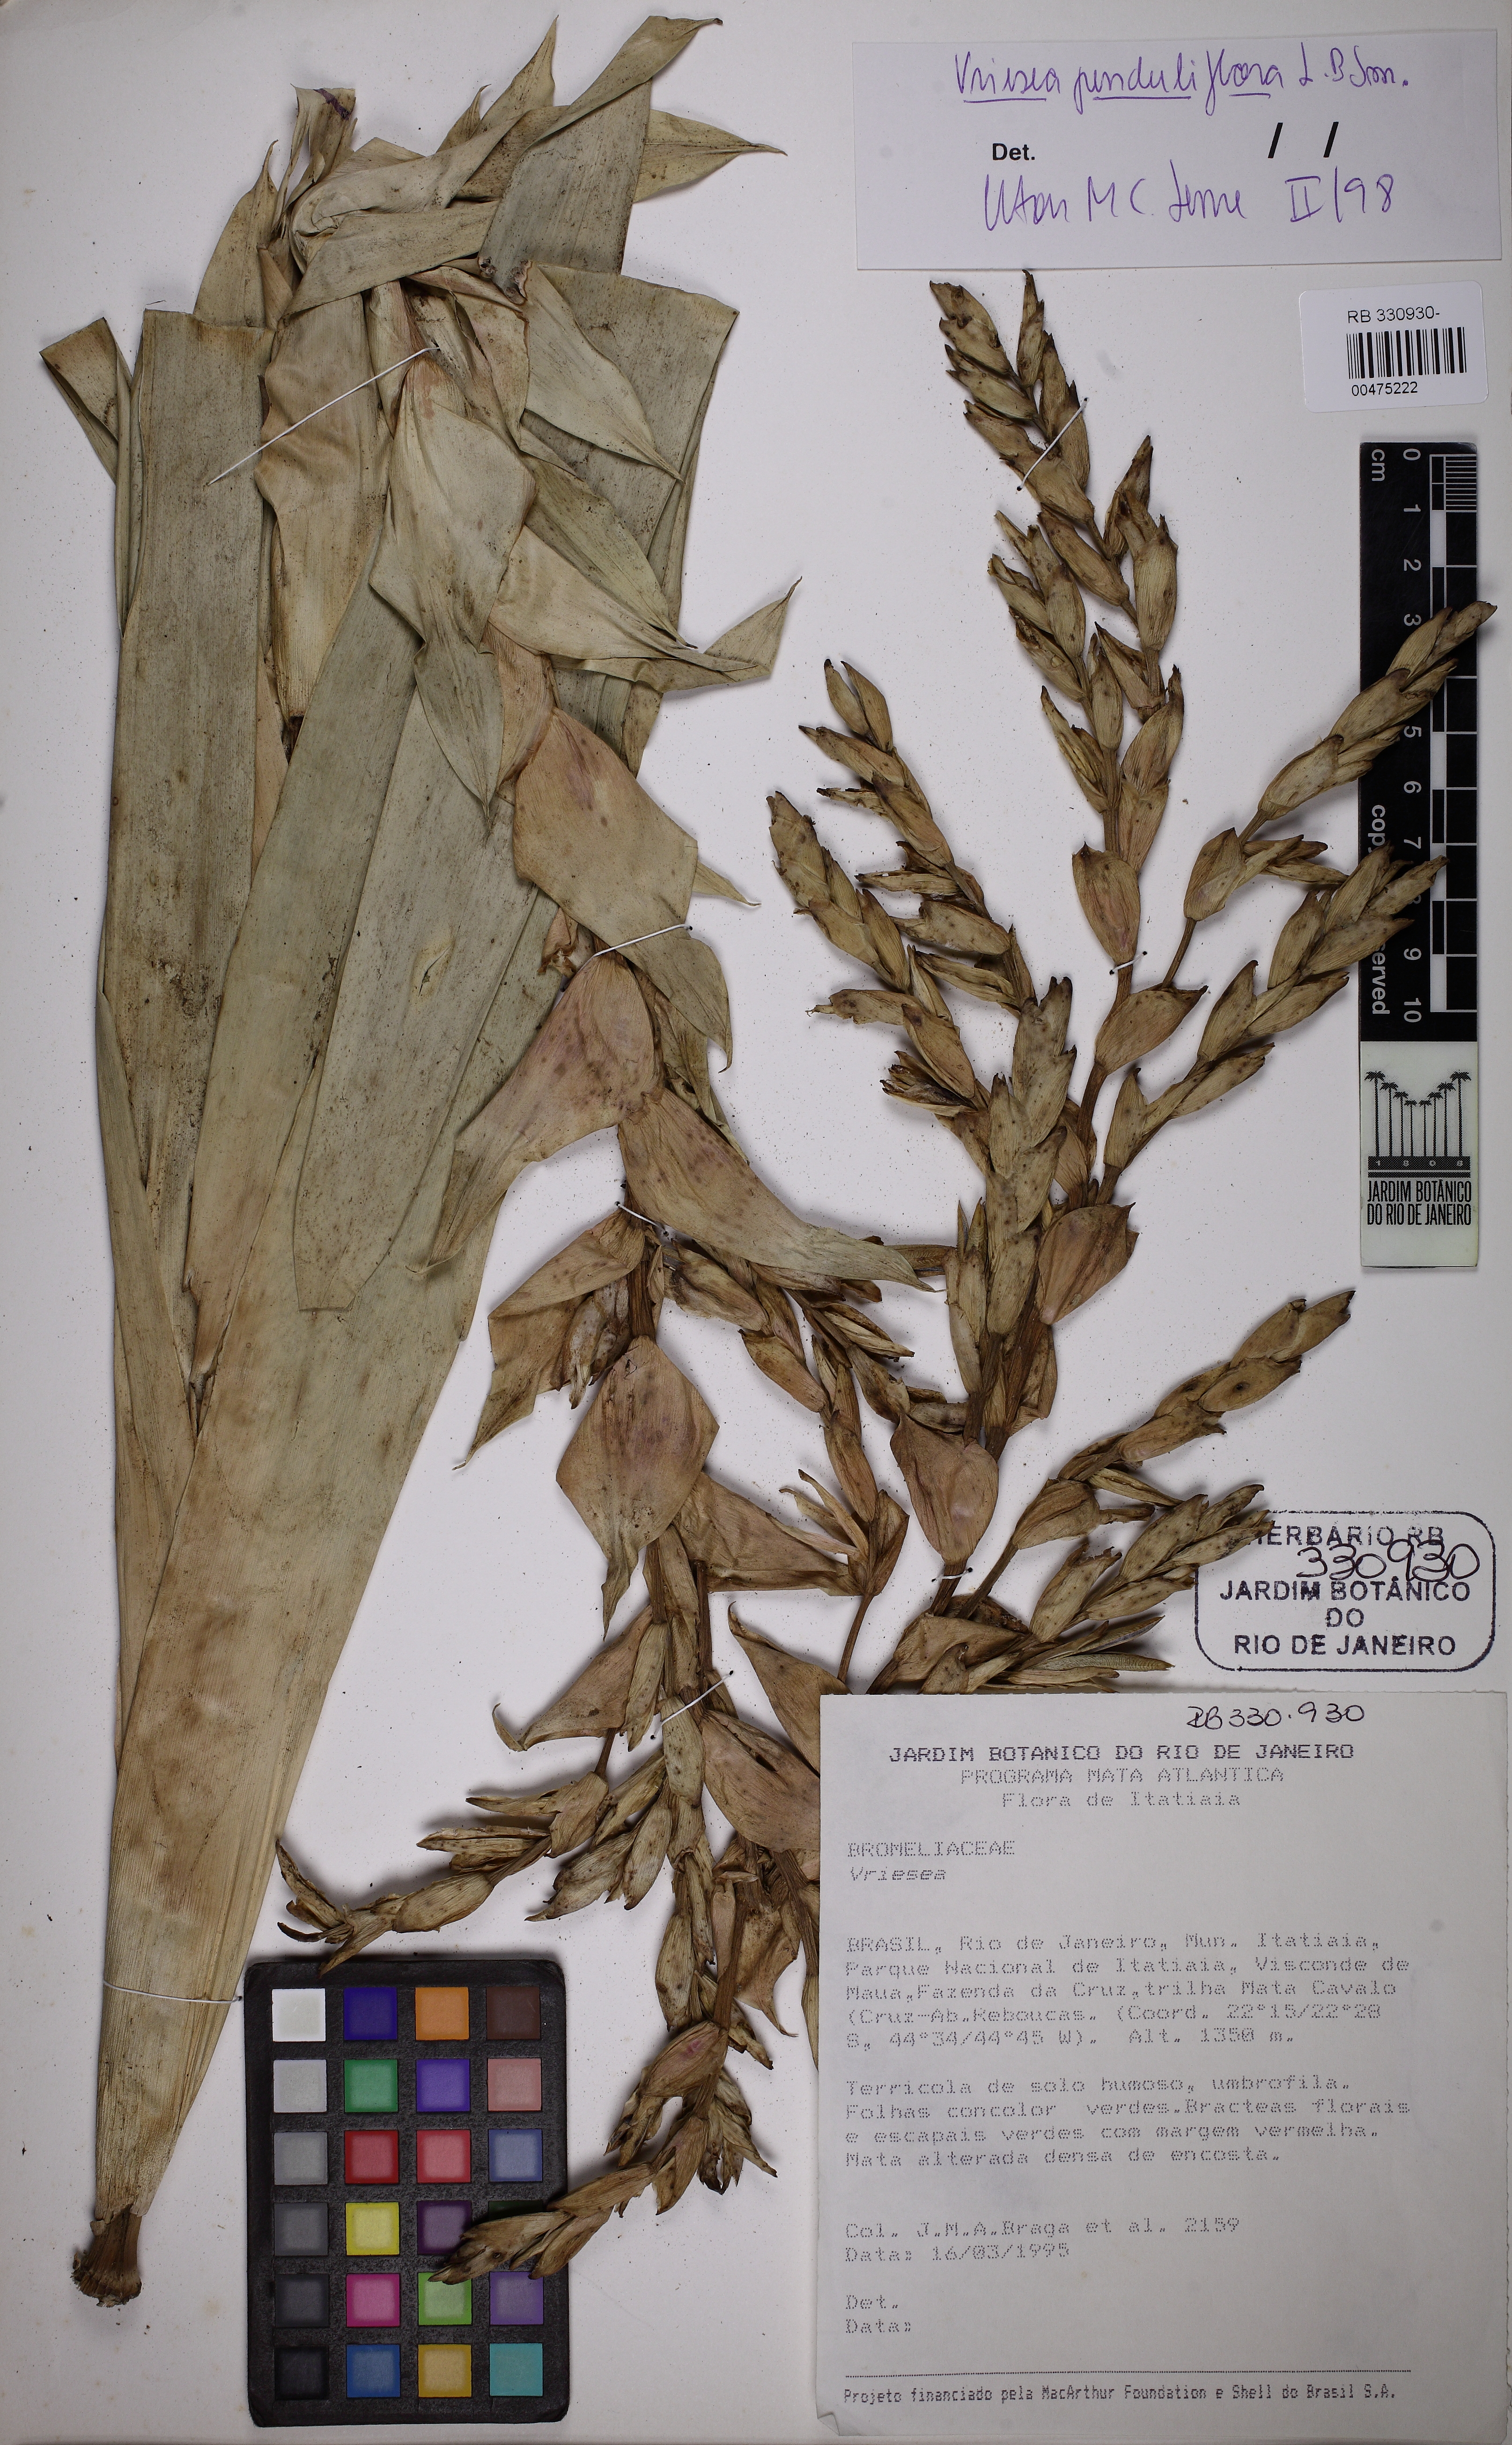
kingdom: Plantae
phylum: Tracheophyta
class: Liliopsida
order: Poales
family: Bromeliaceae
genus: Vriesea
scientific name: Vriesea penduliflora
